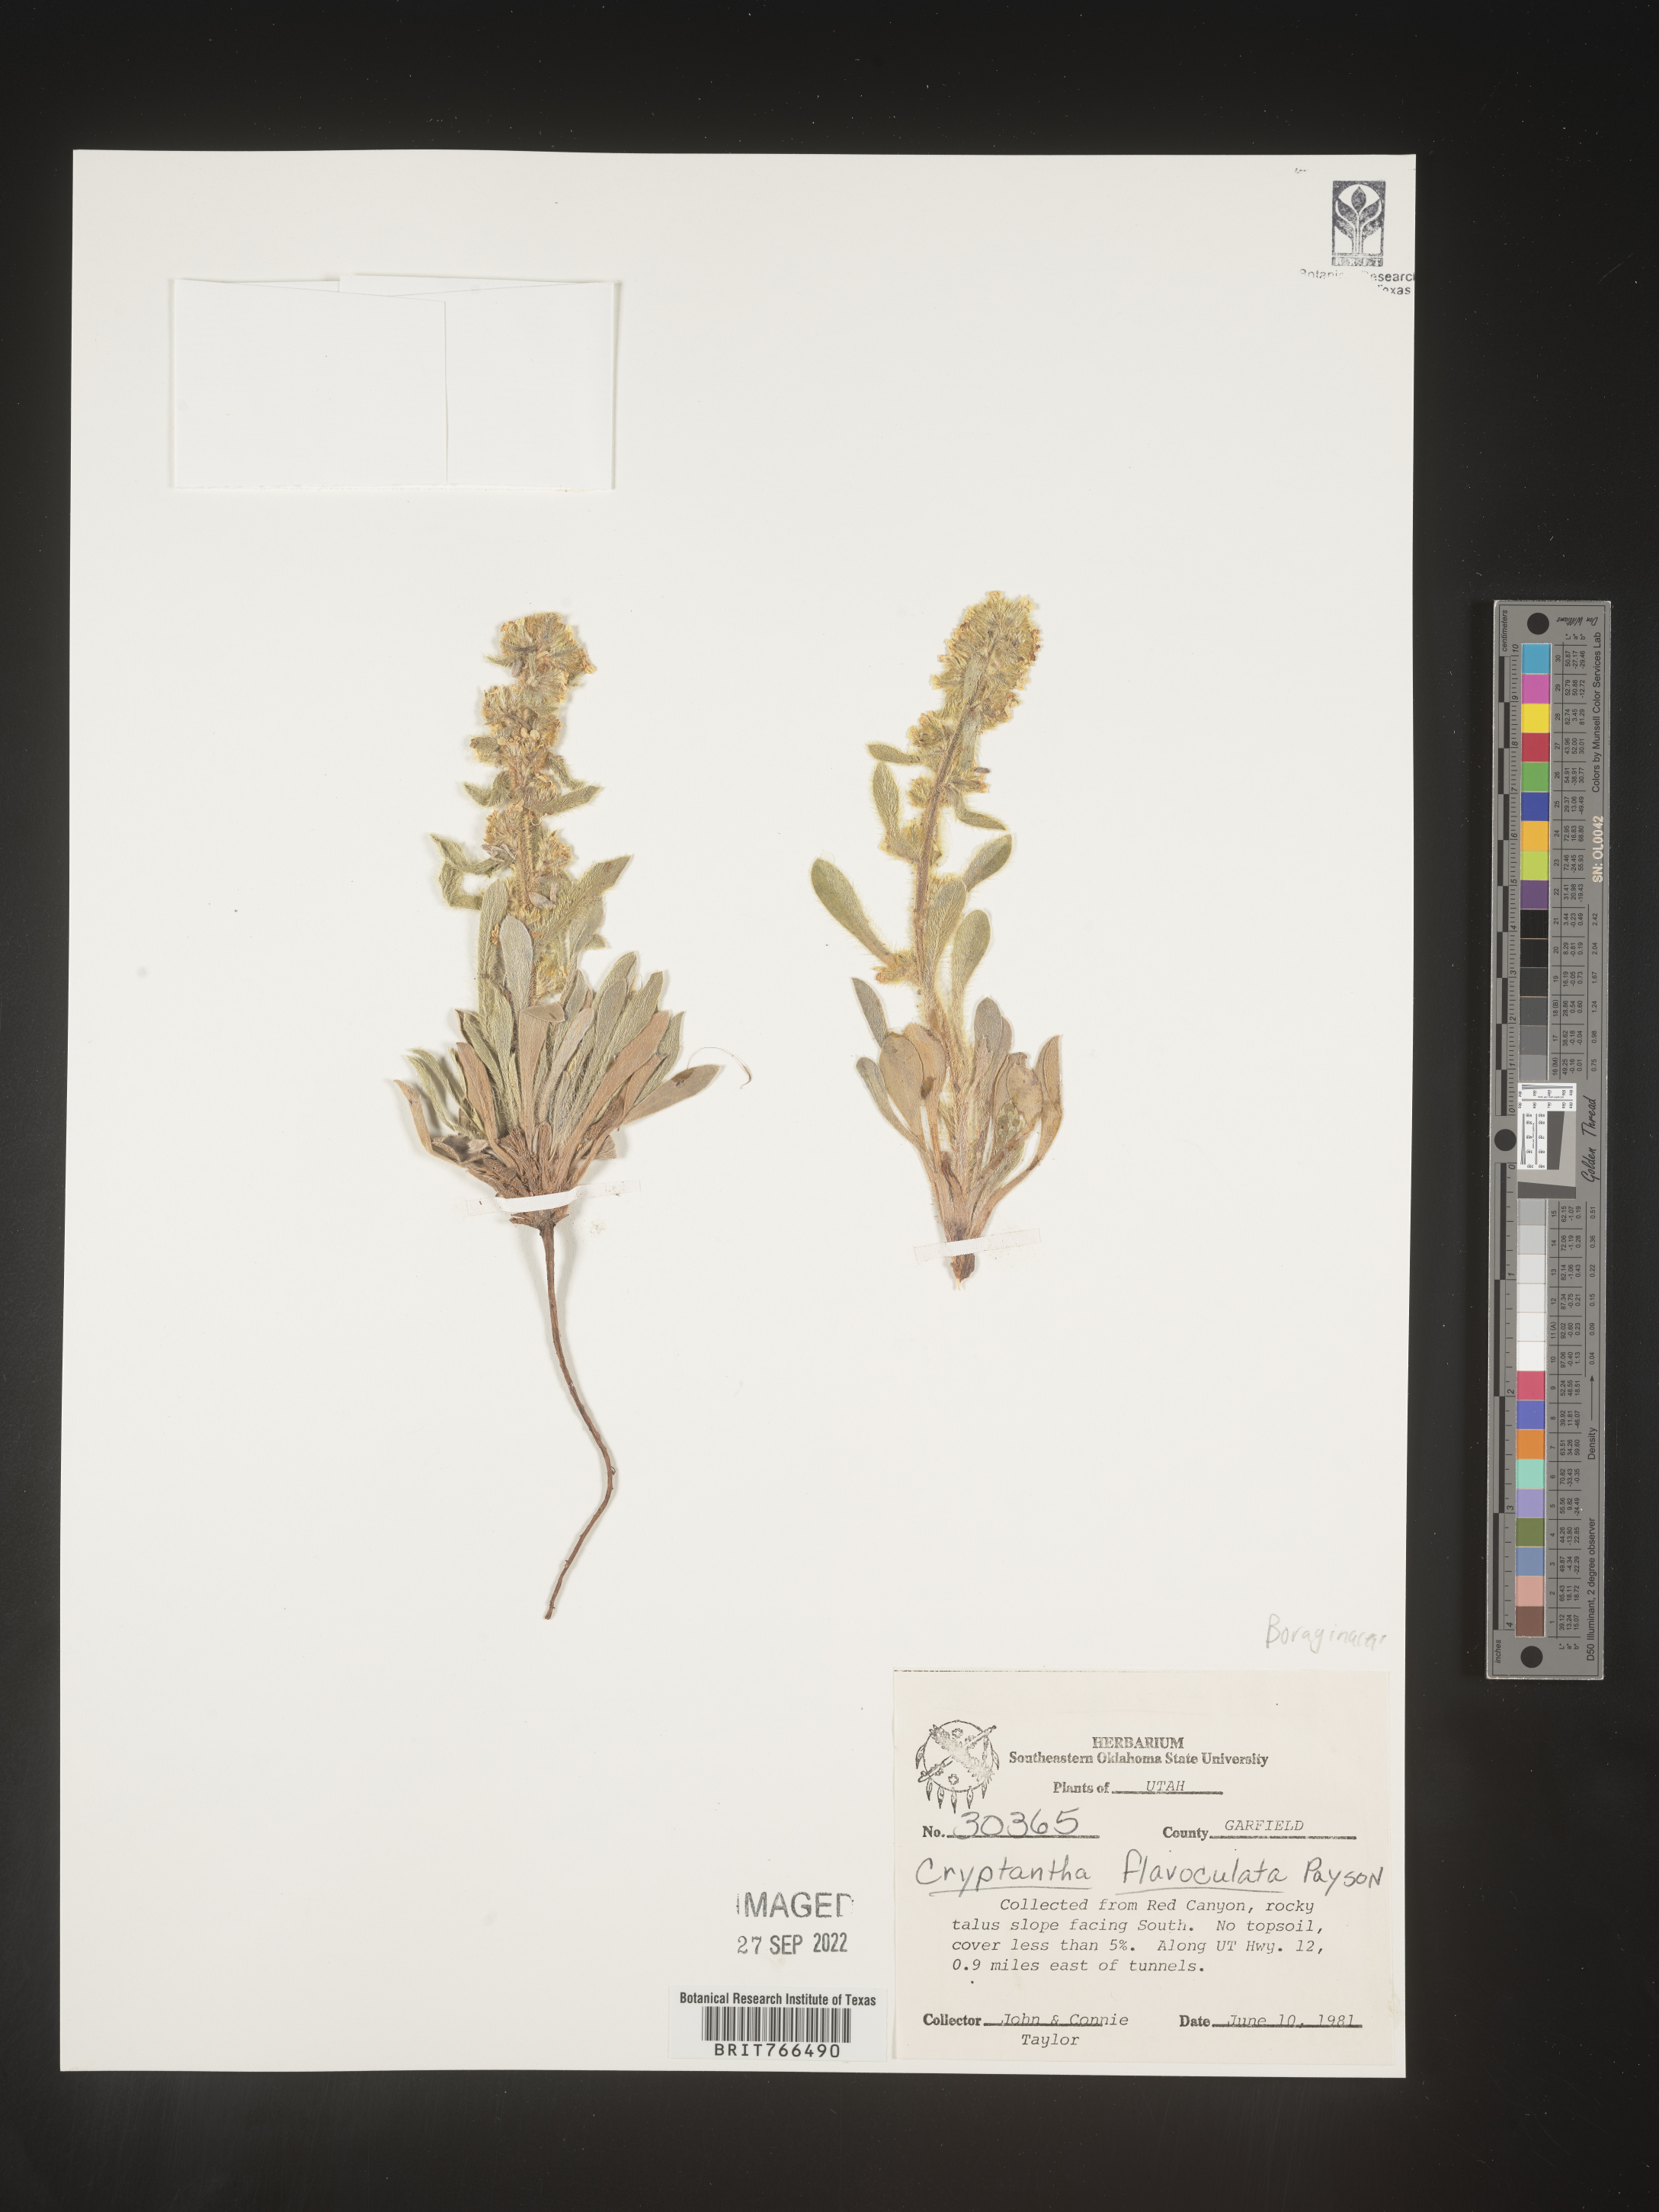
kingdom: Plantae
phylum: Tracheophyta
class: Magnoliopsida
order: Boraginales
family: Boraginaceae
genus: Oreocarya
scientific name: Oreocarya flavoculata
